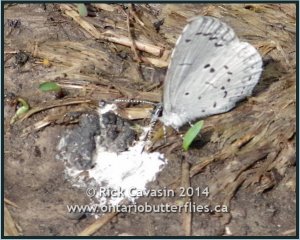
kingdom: Animalia
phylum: Arthropoda
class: Insecta
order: Lepidoptera
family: Lycaenidae
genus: Celastrina
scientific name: Celastrina lucia
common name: Northern Spring Azure
